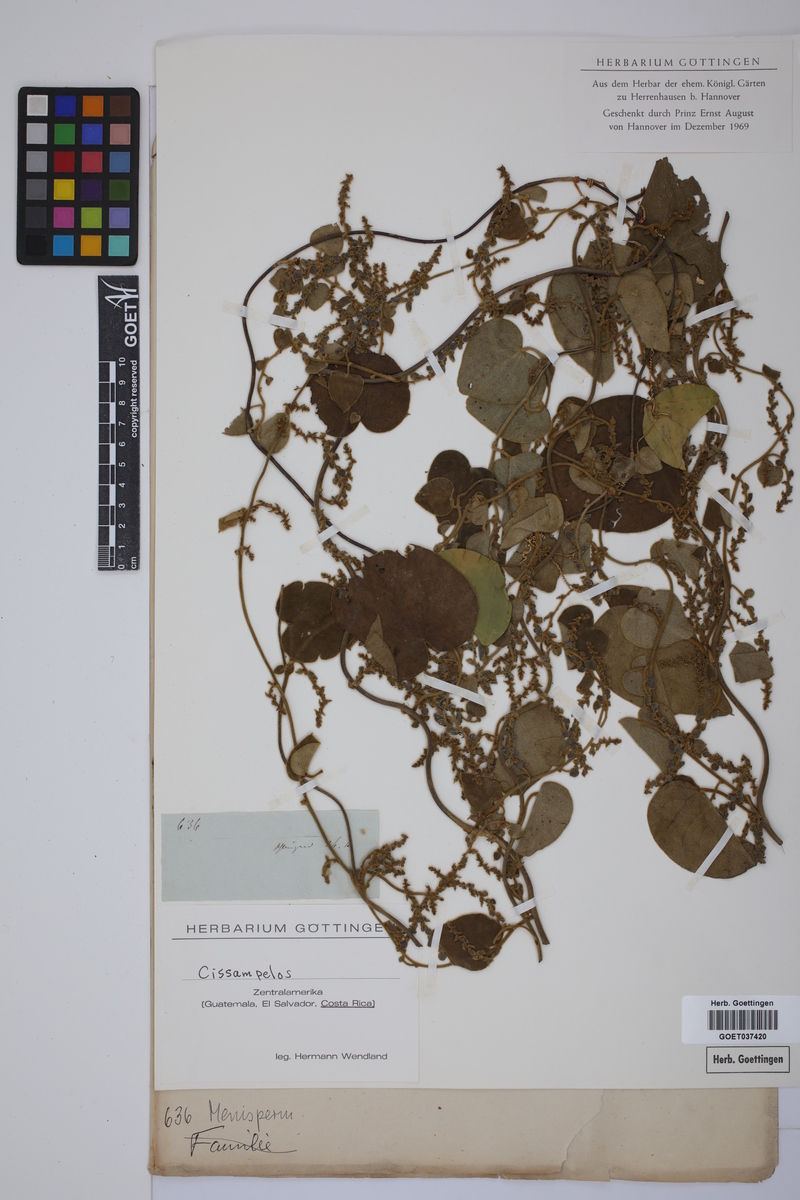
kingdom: Plantae
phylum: Tracheophyta
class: Magnoliopsida
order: Ranunculales
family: Menispermaceae
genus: Cissampelos
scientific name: Cissampelos
